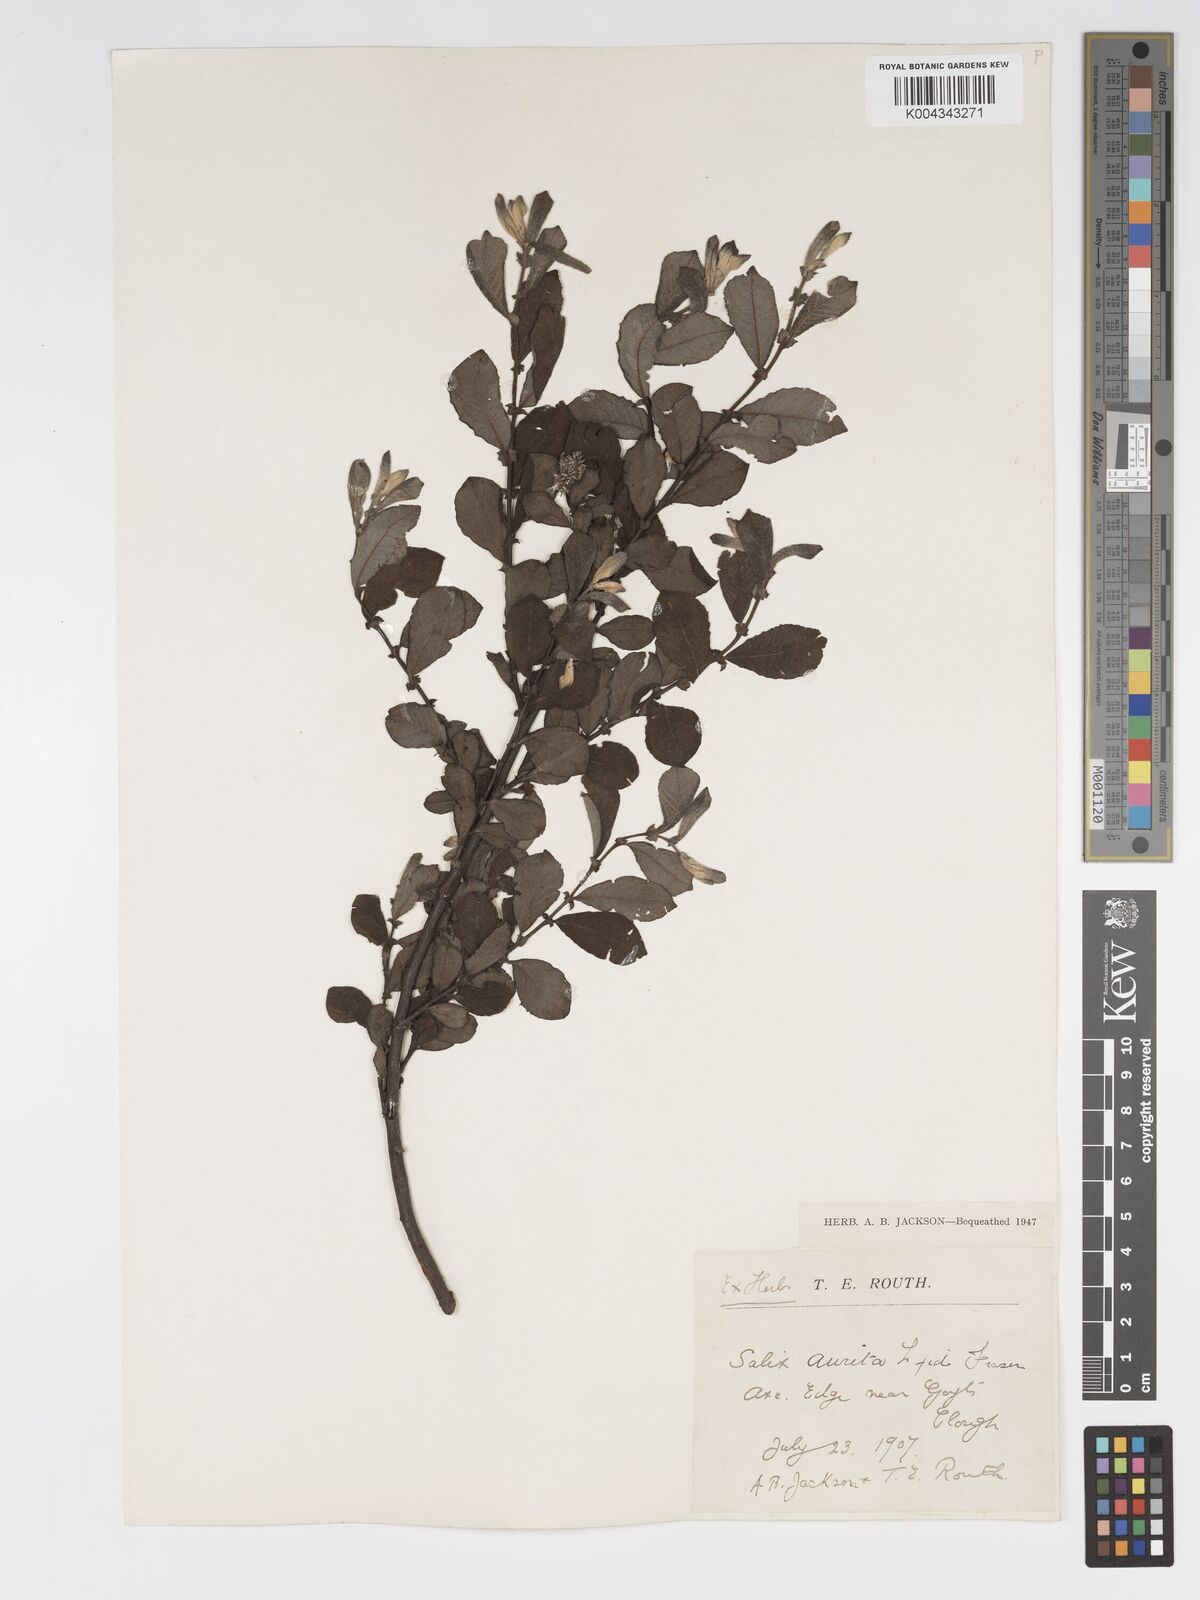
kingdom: Plantae
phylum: Tracheophyta
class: Magnoliopsida
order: Malpighiales
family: Salicaceae
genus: Salix
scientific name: Salix aurita
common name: Eared willow
